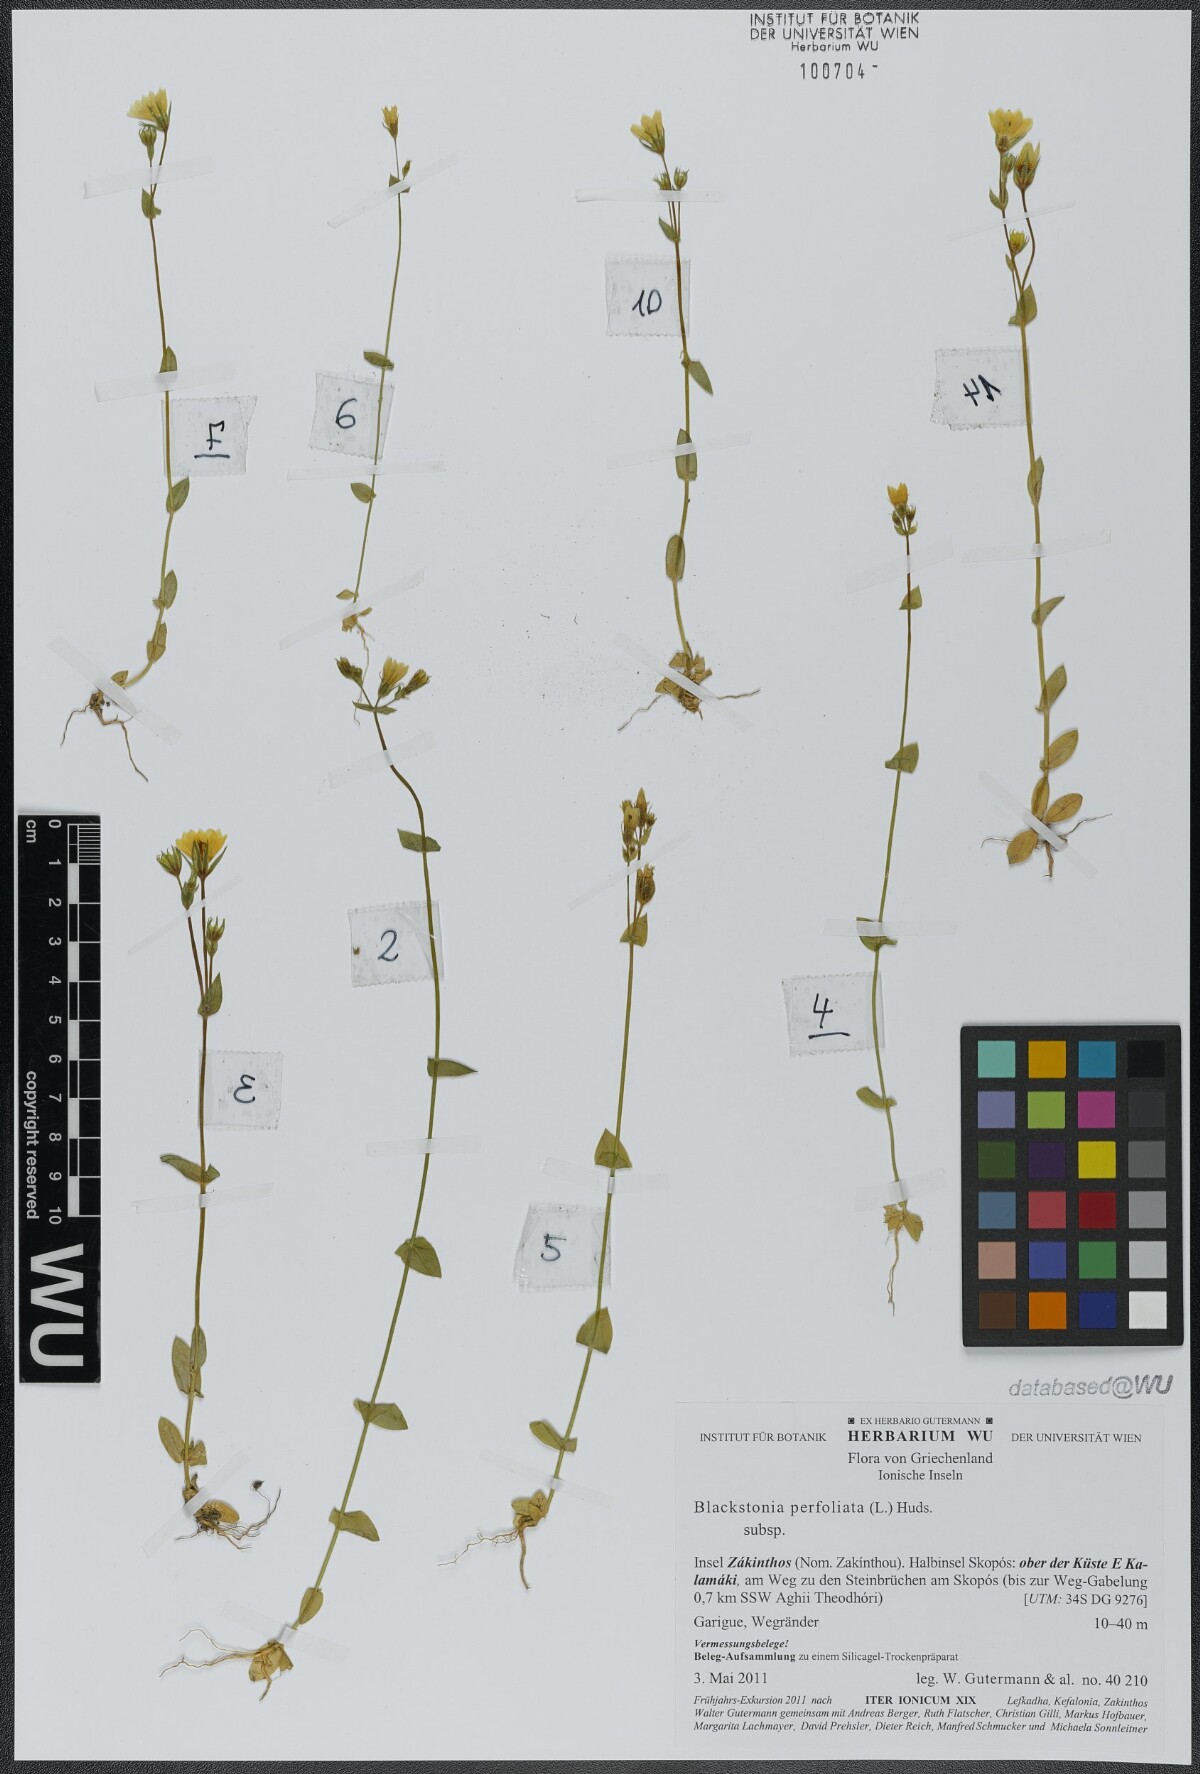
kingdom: Plantae
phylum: Tracheophyta
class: Magnoliopsida
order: Gentianales
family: Gentianaceae
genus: Blackstonia
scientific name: Blackstonia perfoliata
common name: Yellow-wort
